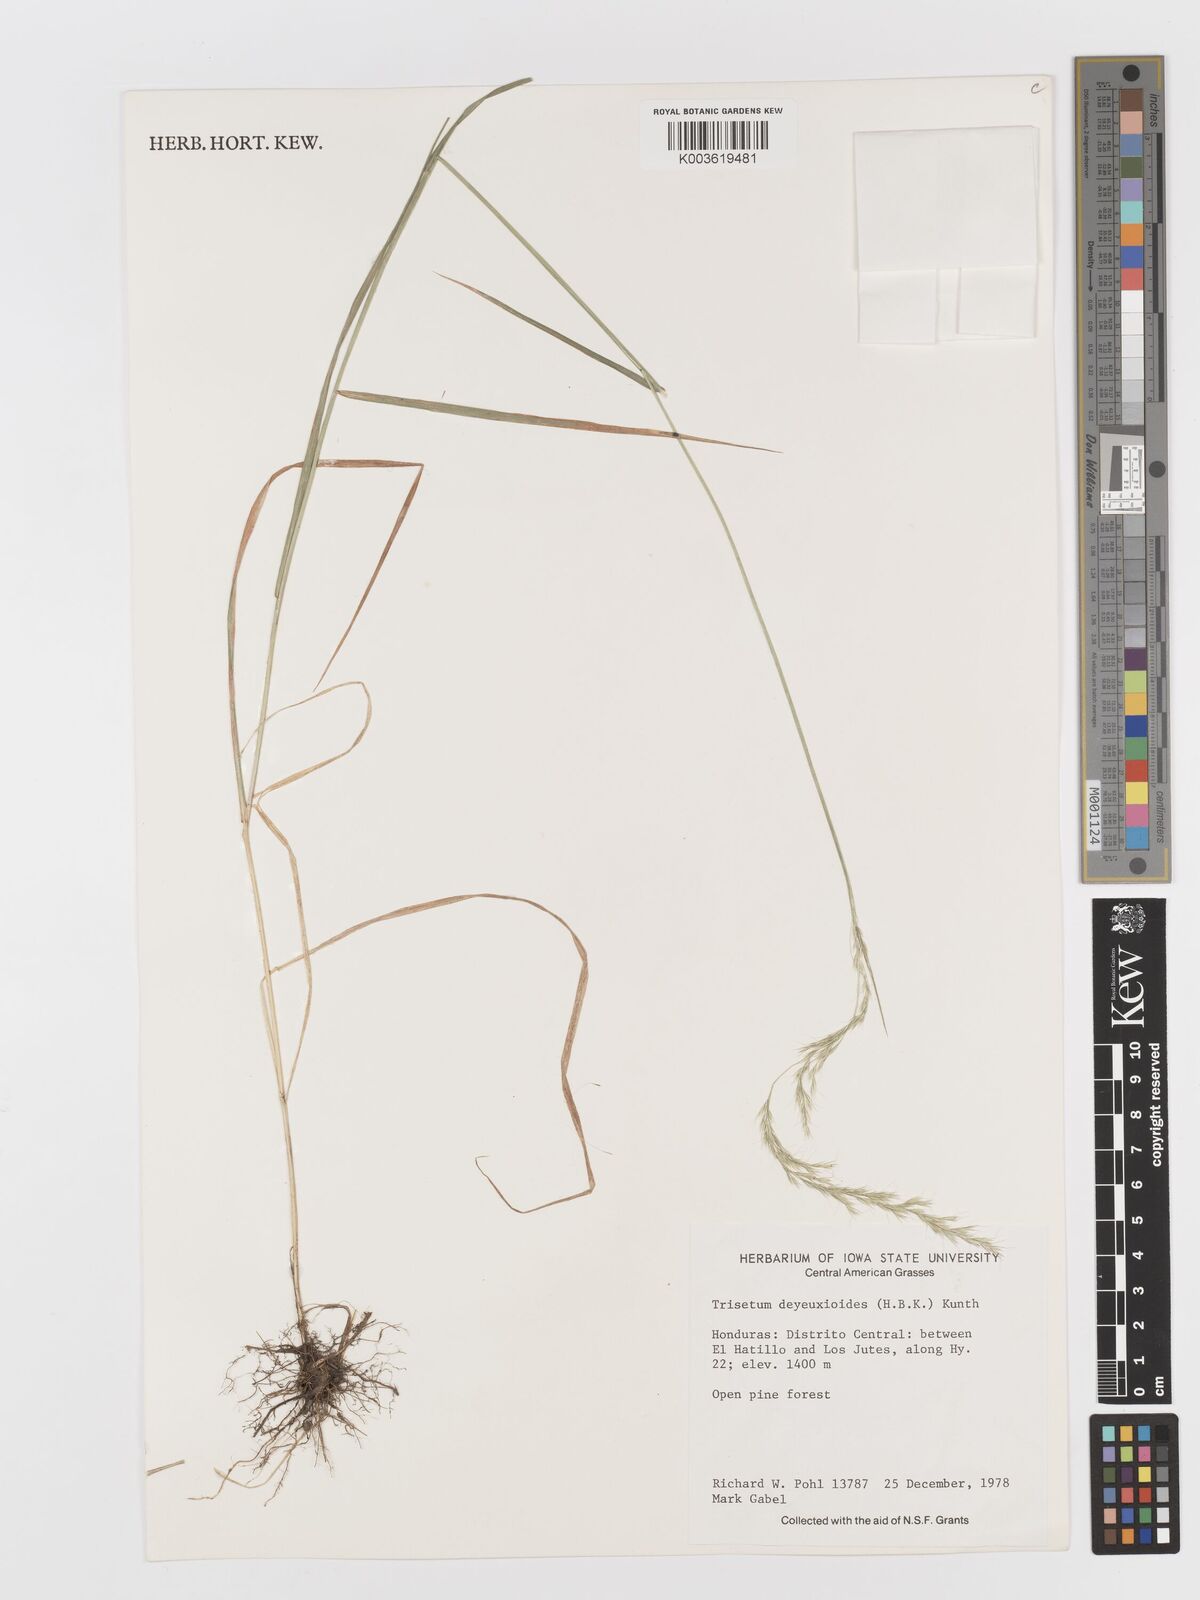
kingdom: Plantae
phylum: Tracheophyta
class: Liliopsida
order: Poales
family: Poaceae
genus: Peyritschia
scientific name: Peyritschia deyeuxioides
